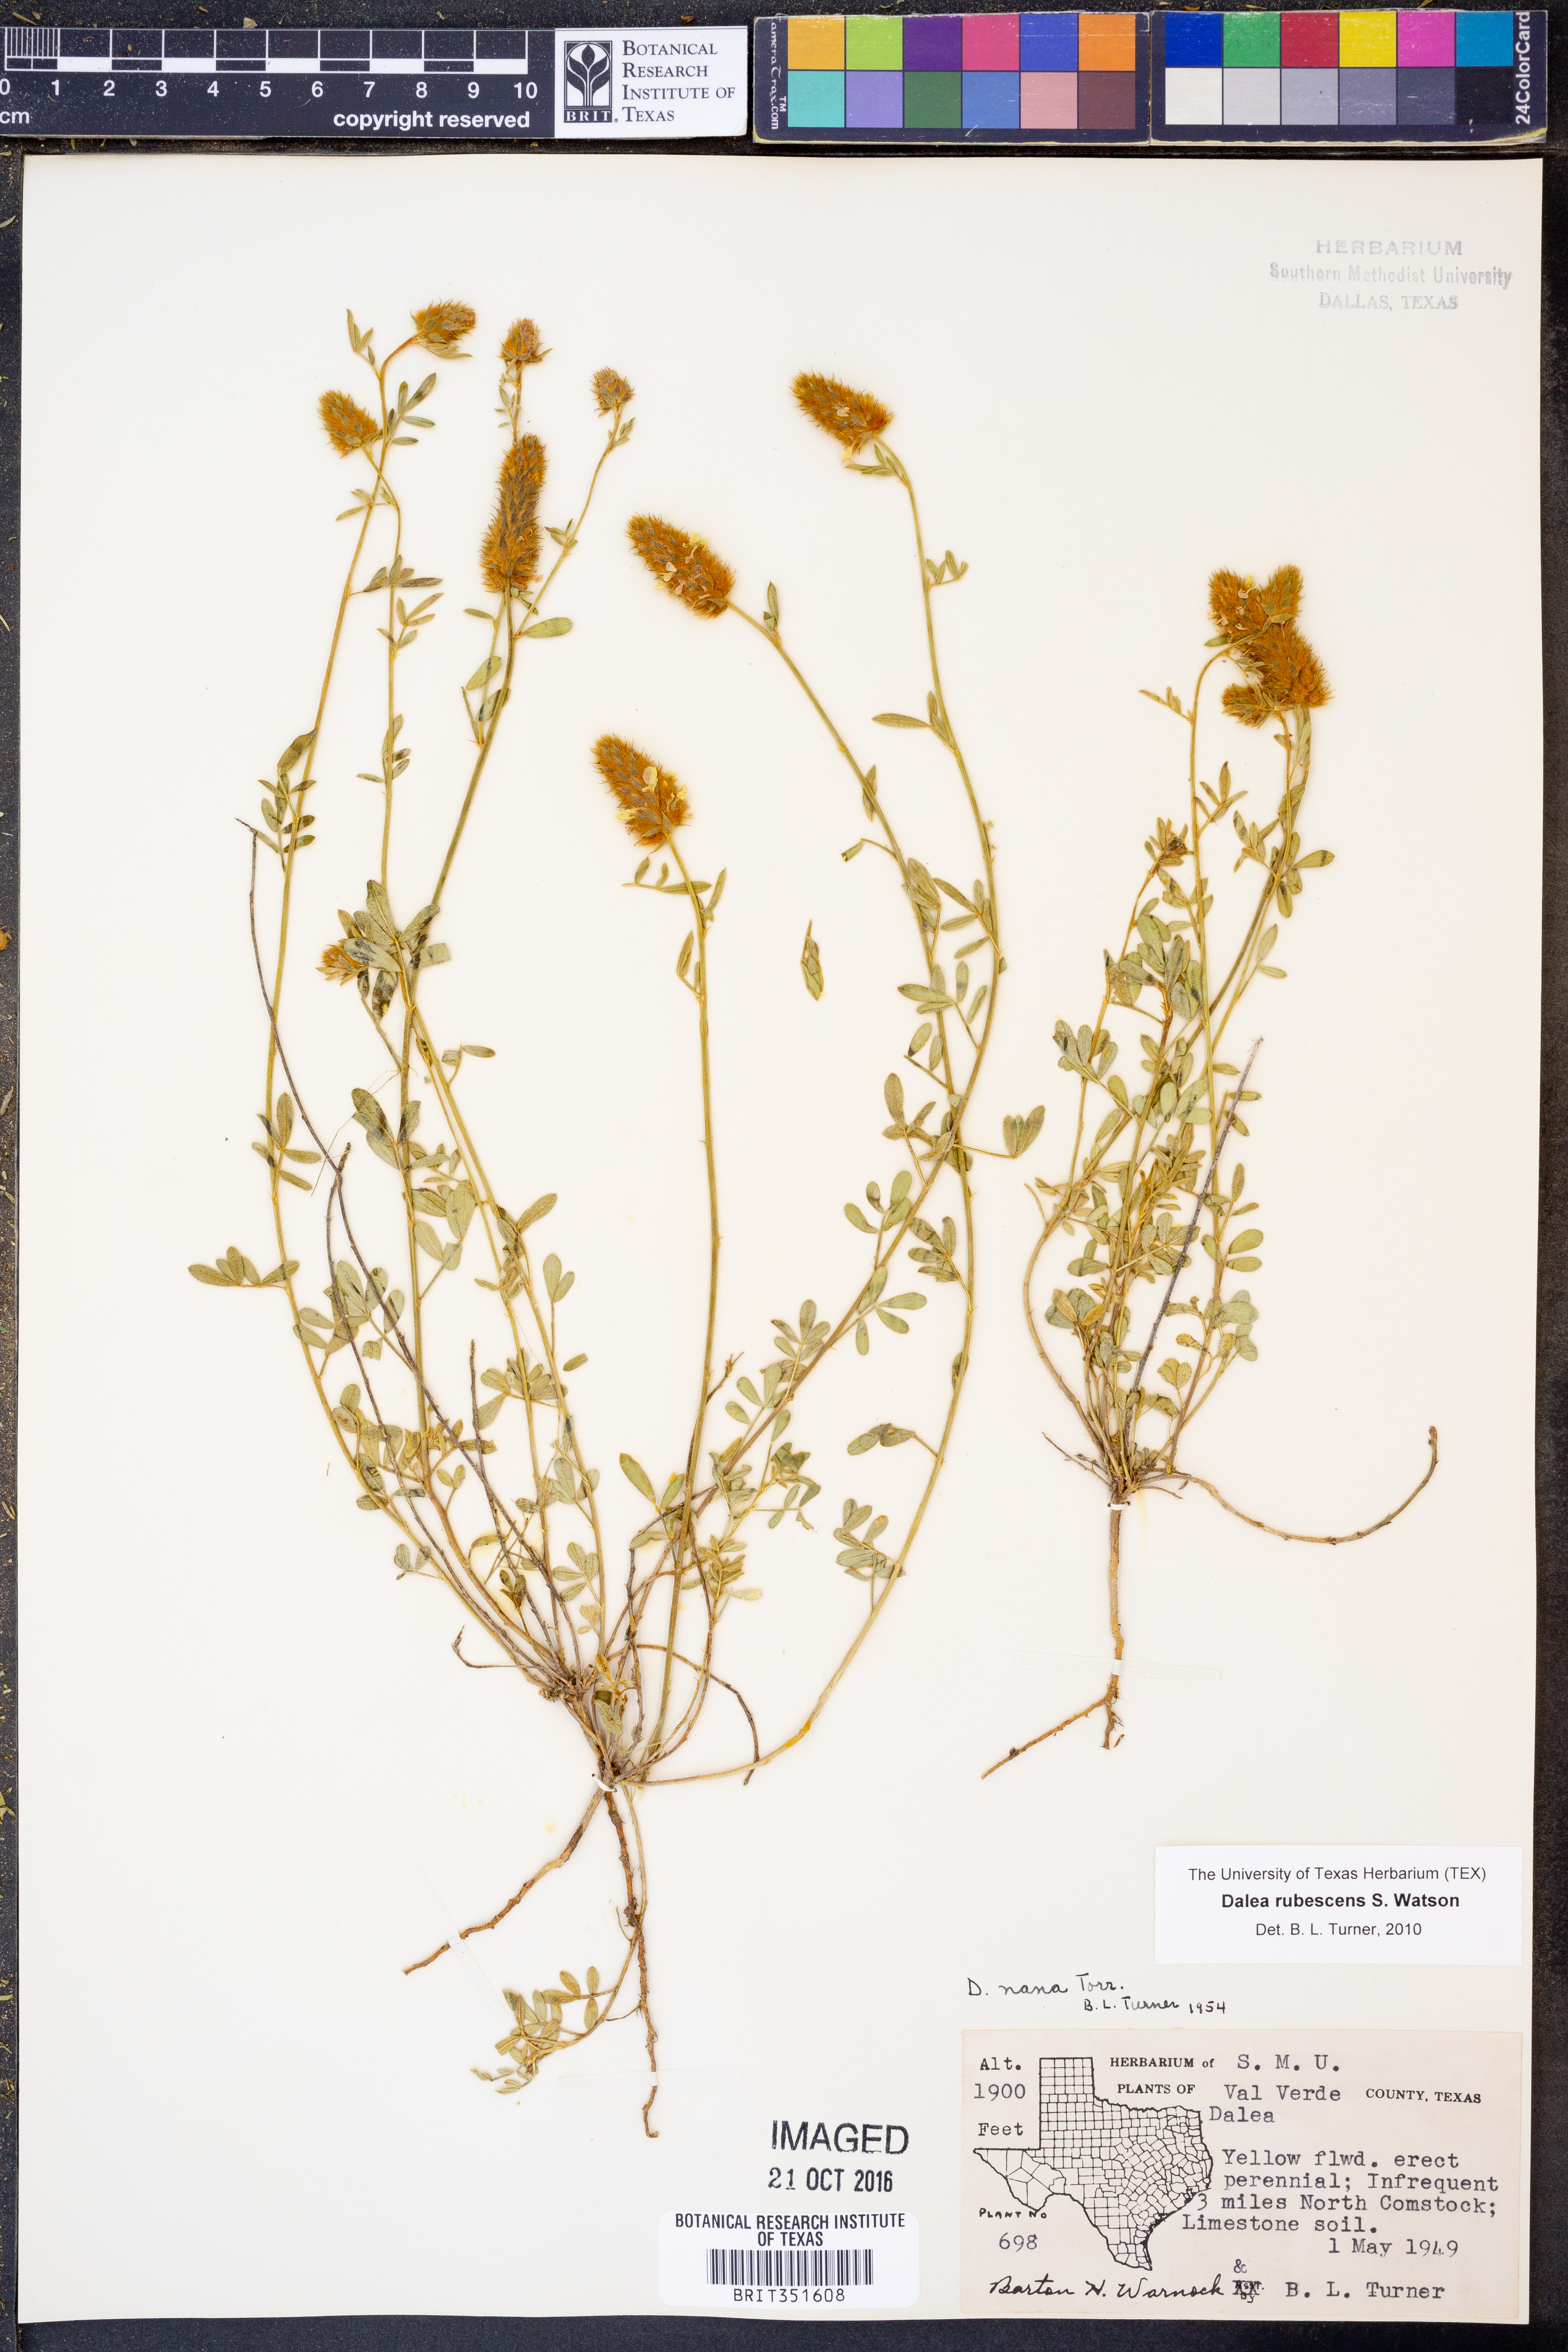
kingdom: Plantae
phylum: Tracheophyta
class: Magnoliopsida
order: Fabales
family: Fabaceae
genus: Dalea
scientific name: Dalea rubescens
